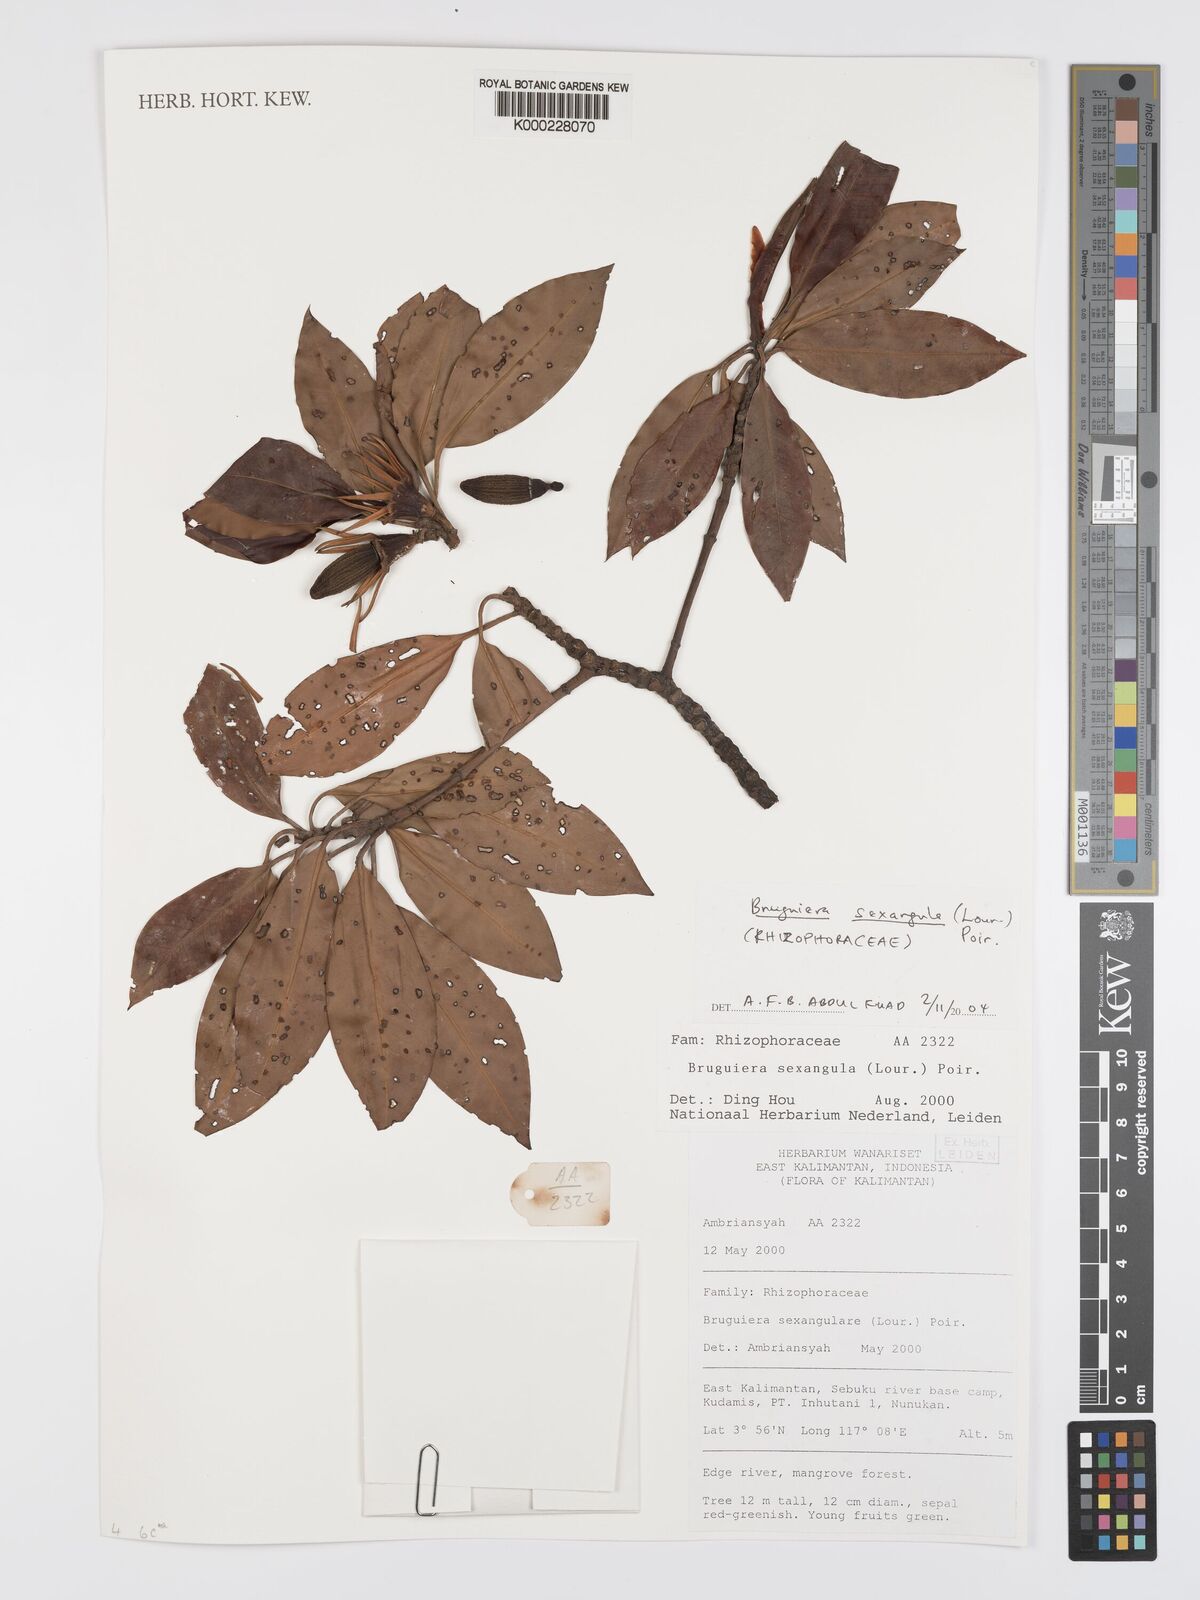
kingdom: Plantae
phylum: Tracheophyta
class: Magnoliopsida
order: Malpighiales
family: Rhizophoraceae
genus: Bruguiera
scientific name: Bruguiera sexangula
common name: Oriental mangrove
